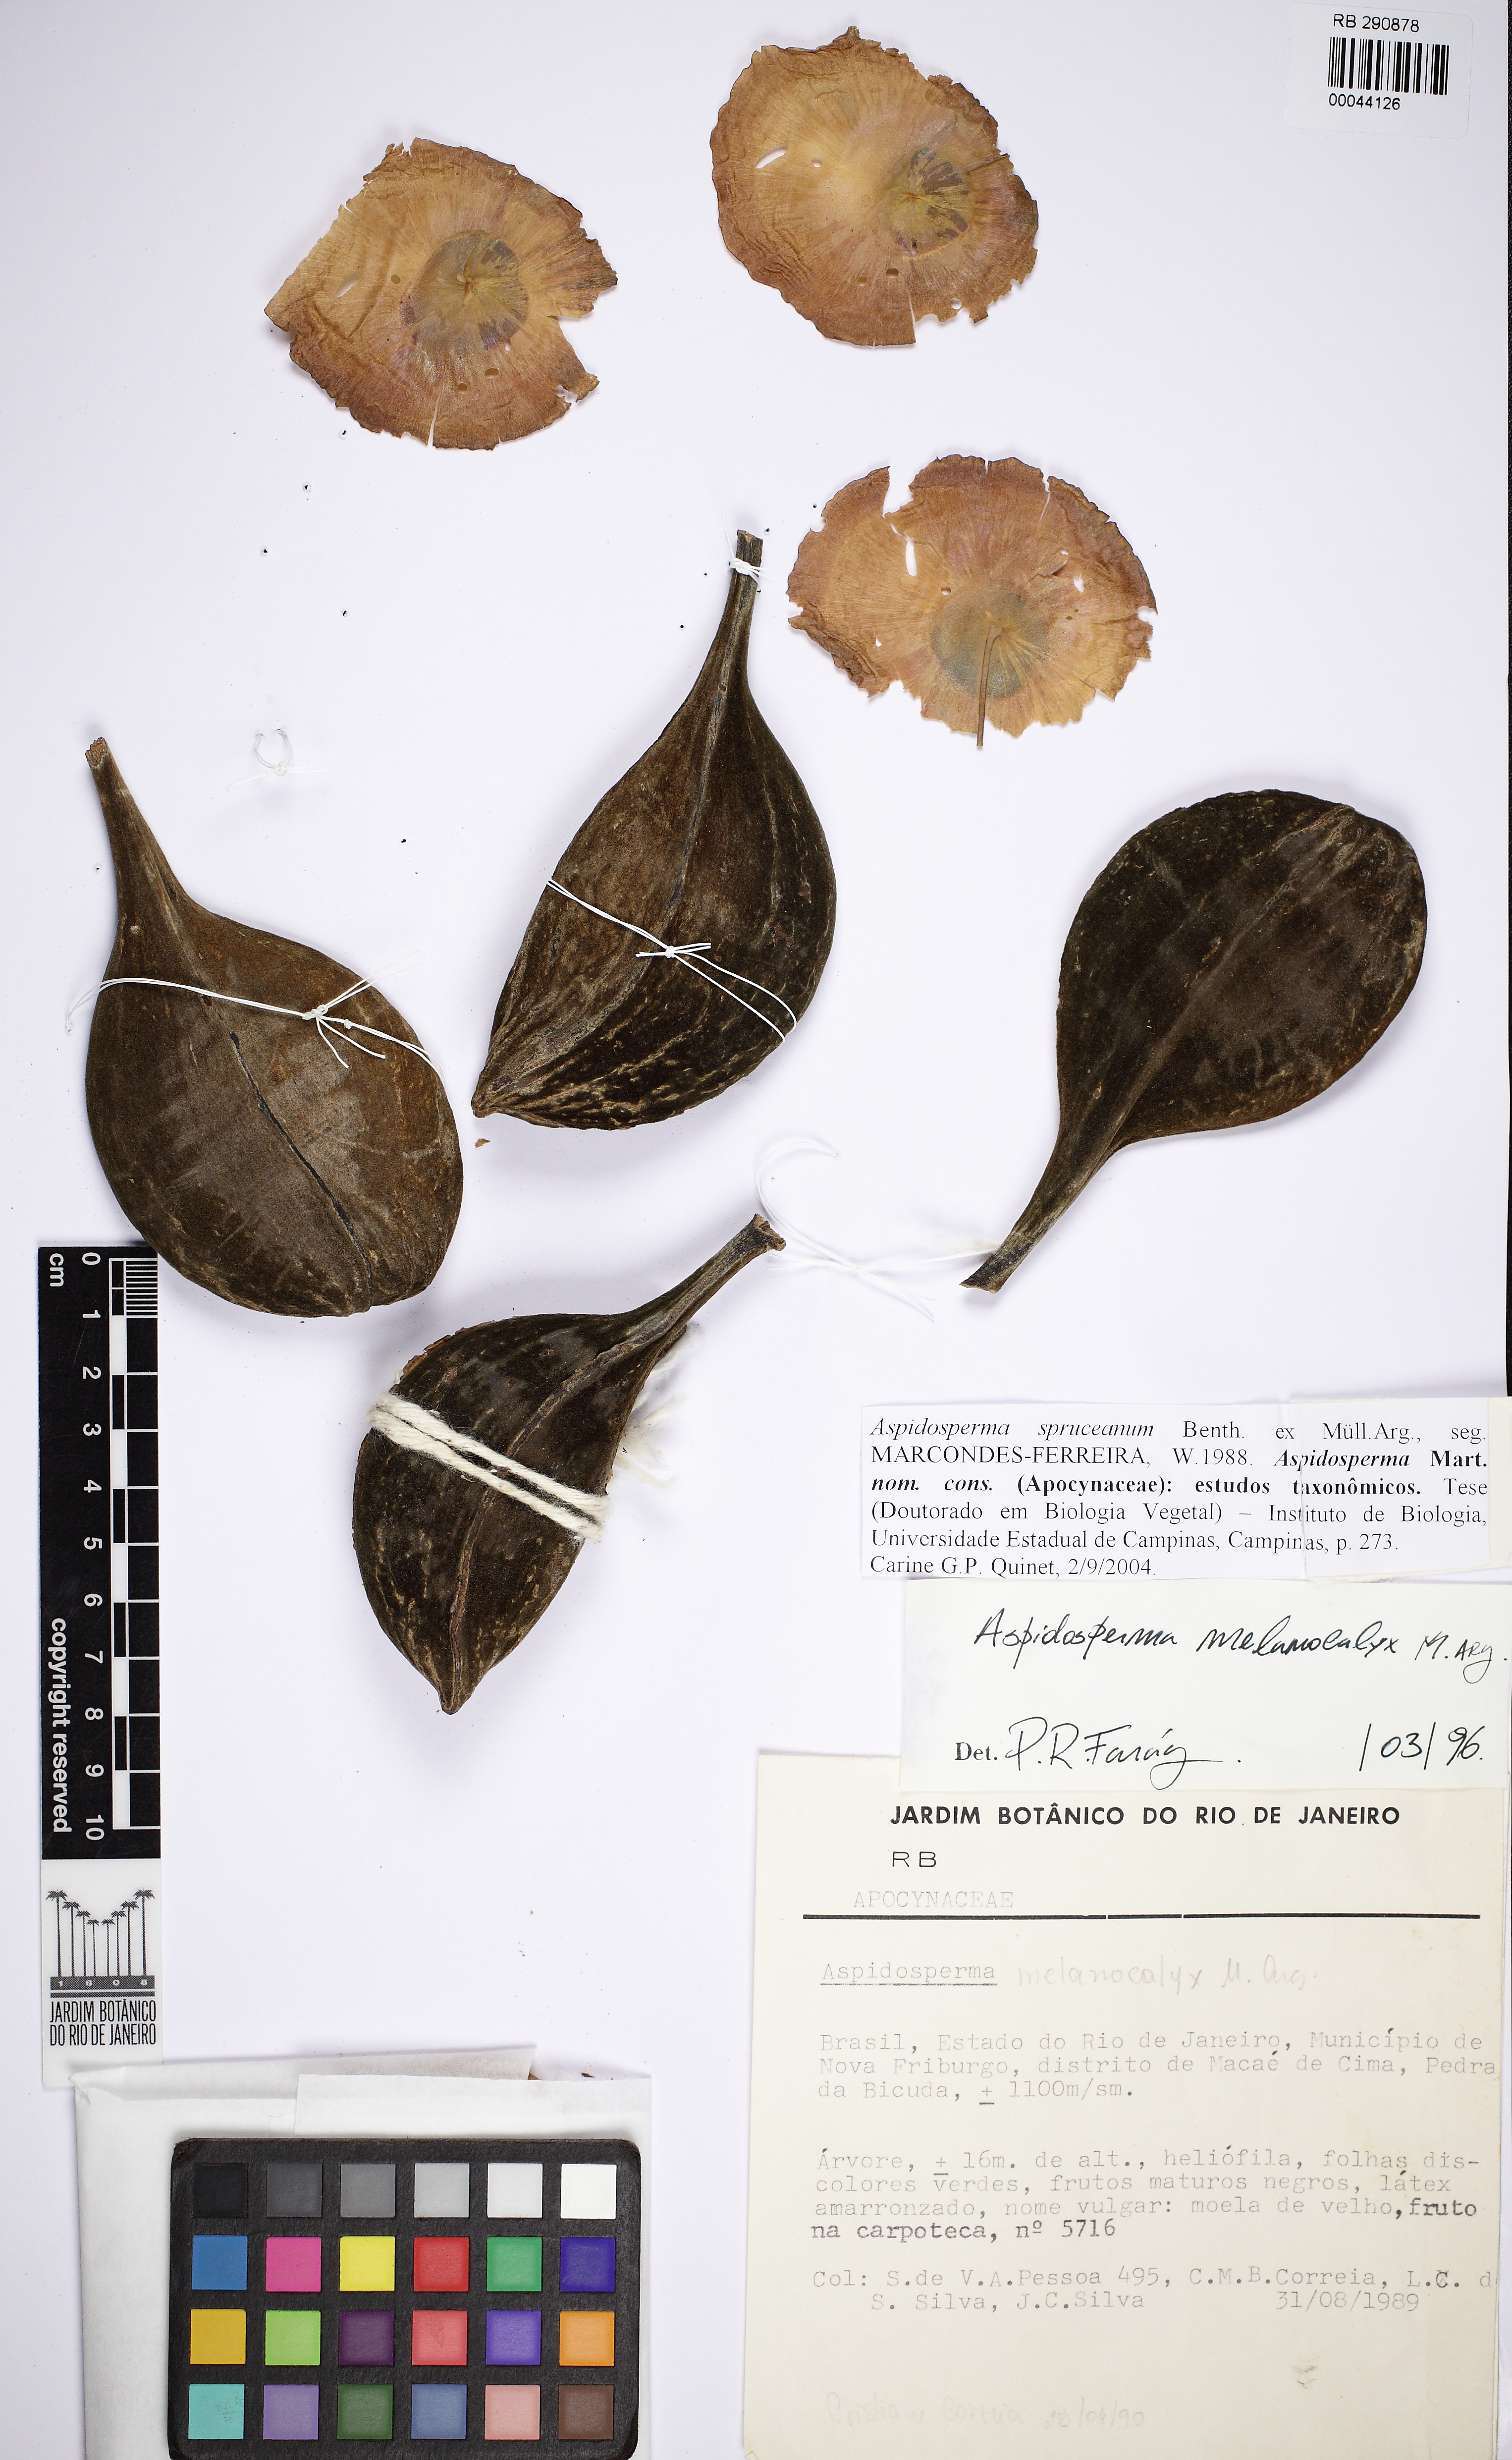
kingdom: Plantae
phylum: Tracheophyta
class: Magnoliopsida
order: Gentianales
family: Apocynaceae
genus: Aspidosperma
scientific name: Aspidosperma spruceanum
